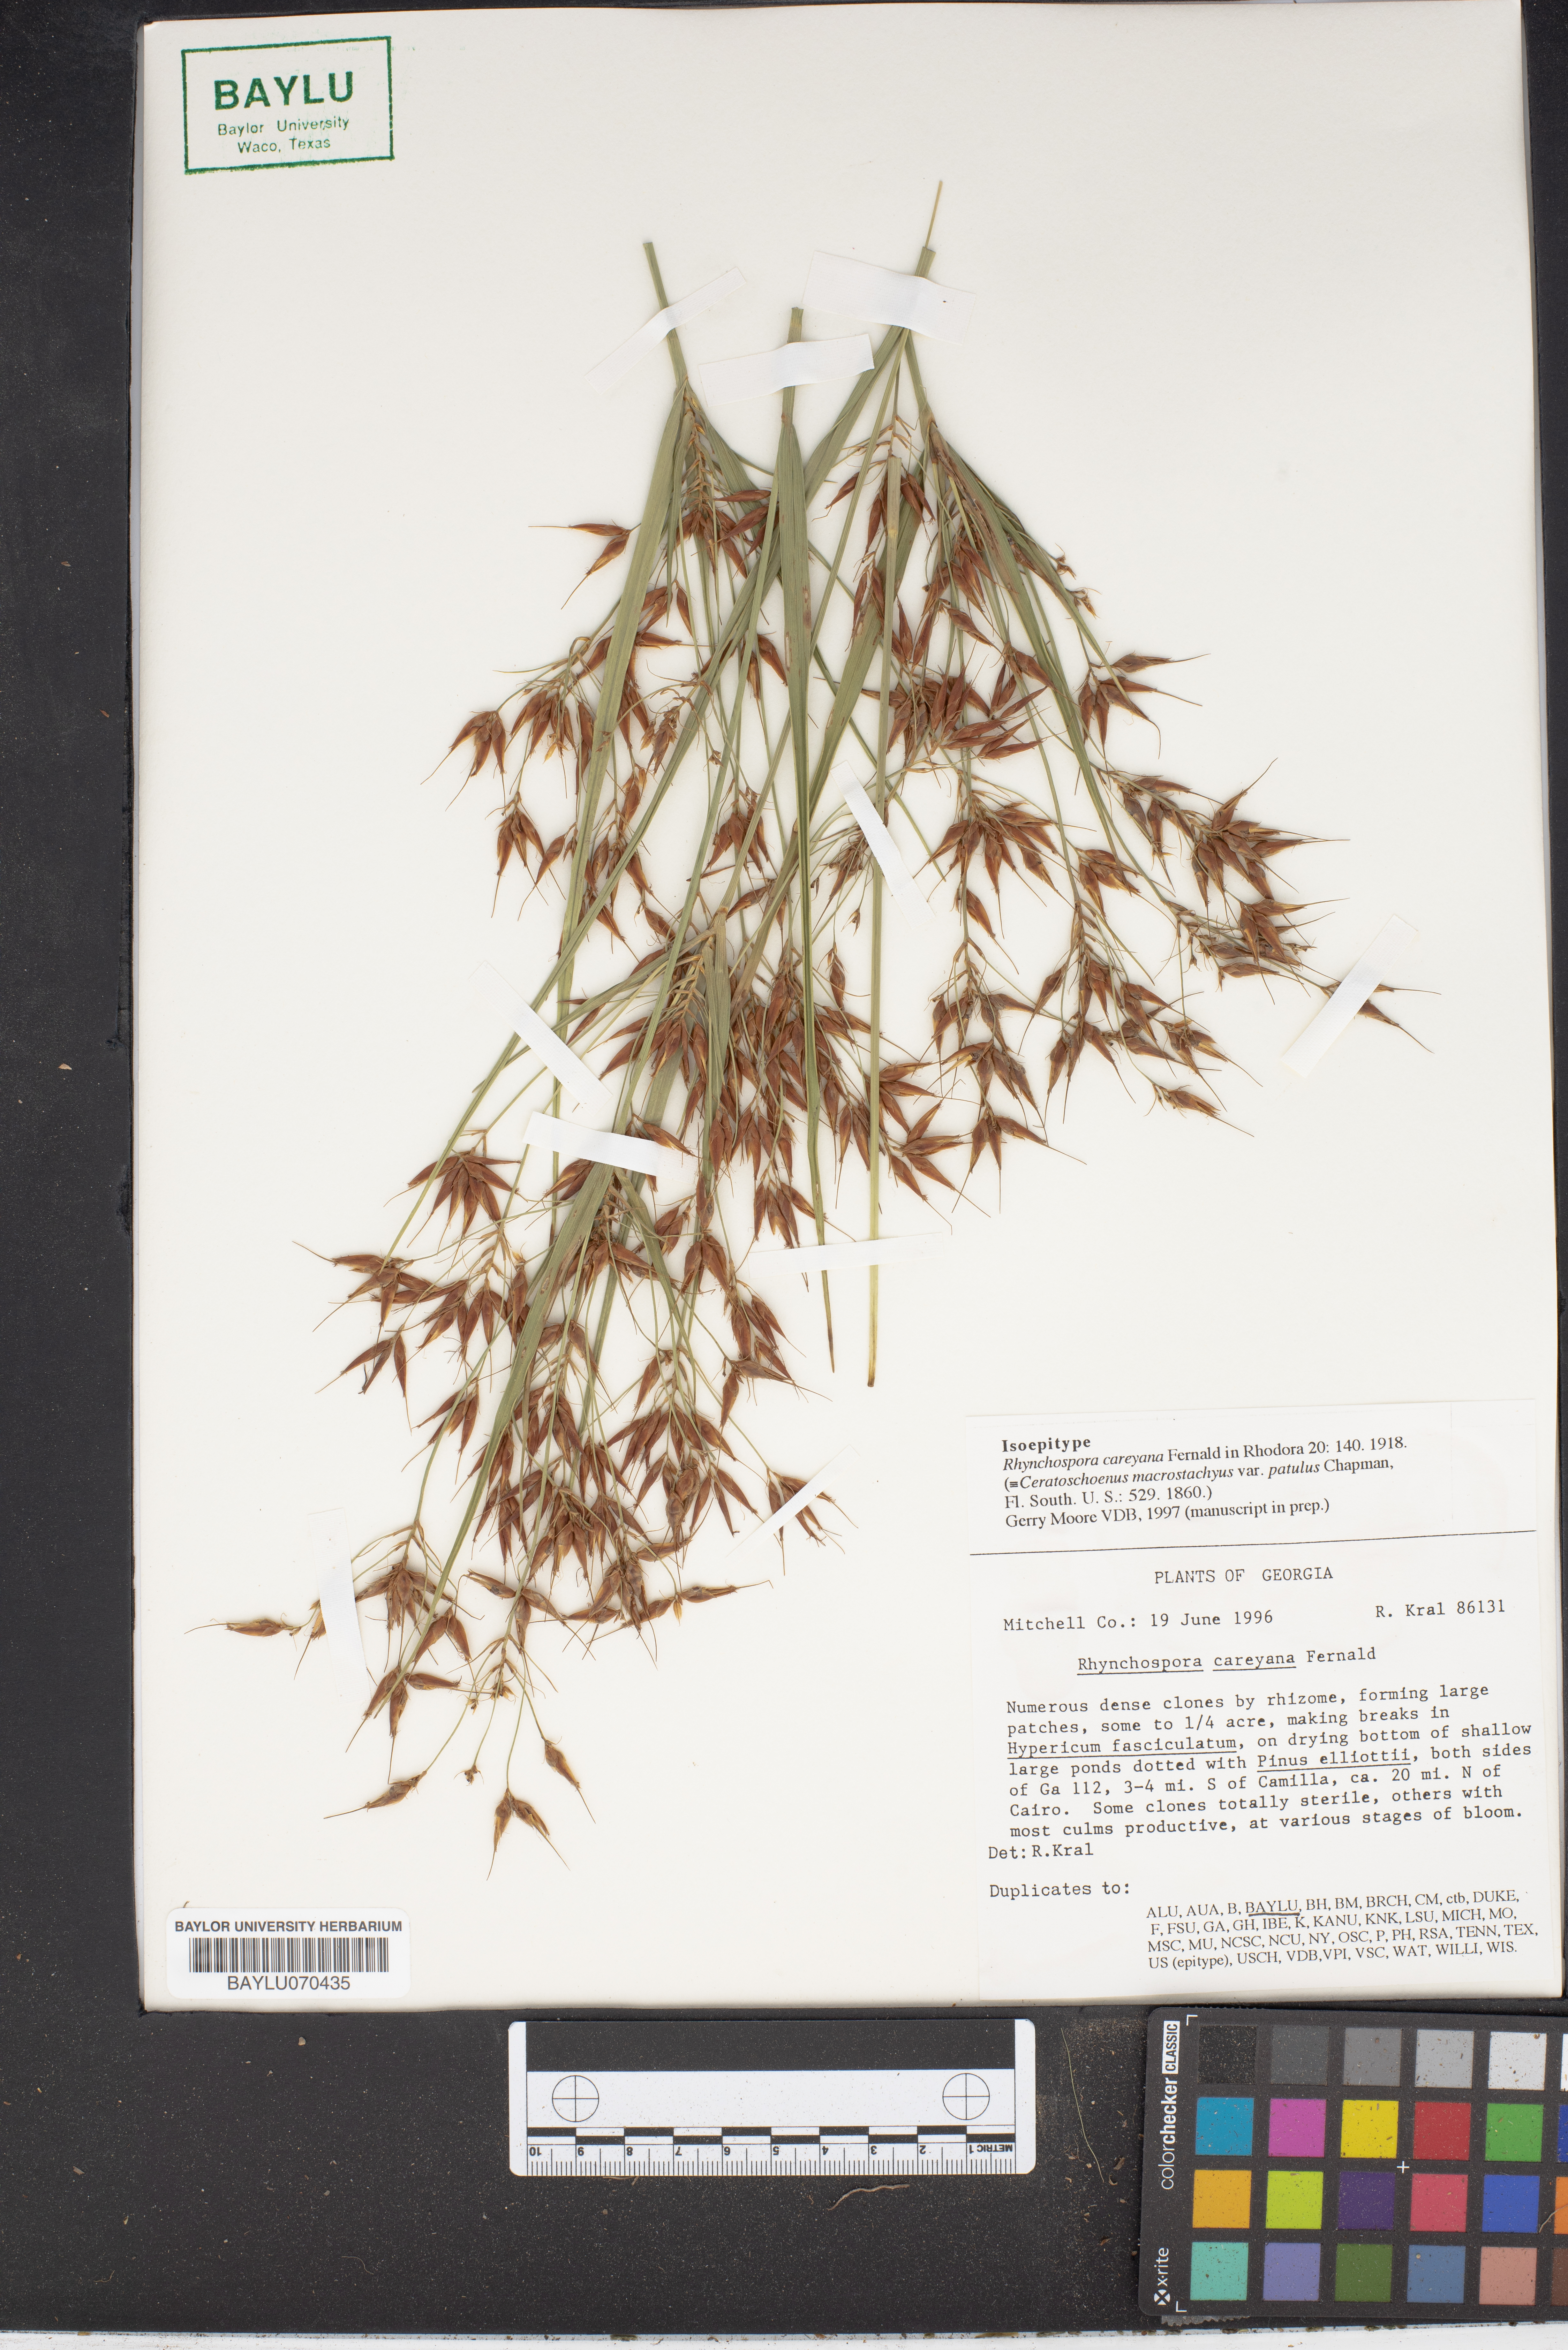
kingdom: Plantae
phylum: Tracheophyta
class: Liliopsida
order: Poales
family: Cyperaceae
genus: Rhynchospora
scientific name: Rhynchospora careyana
